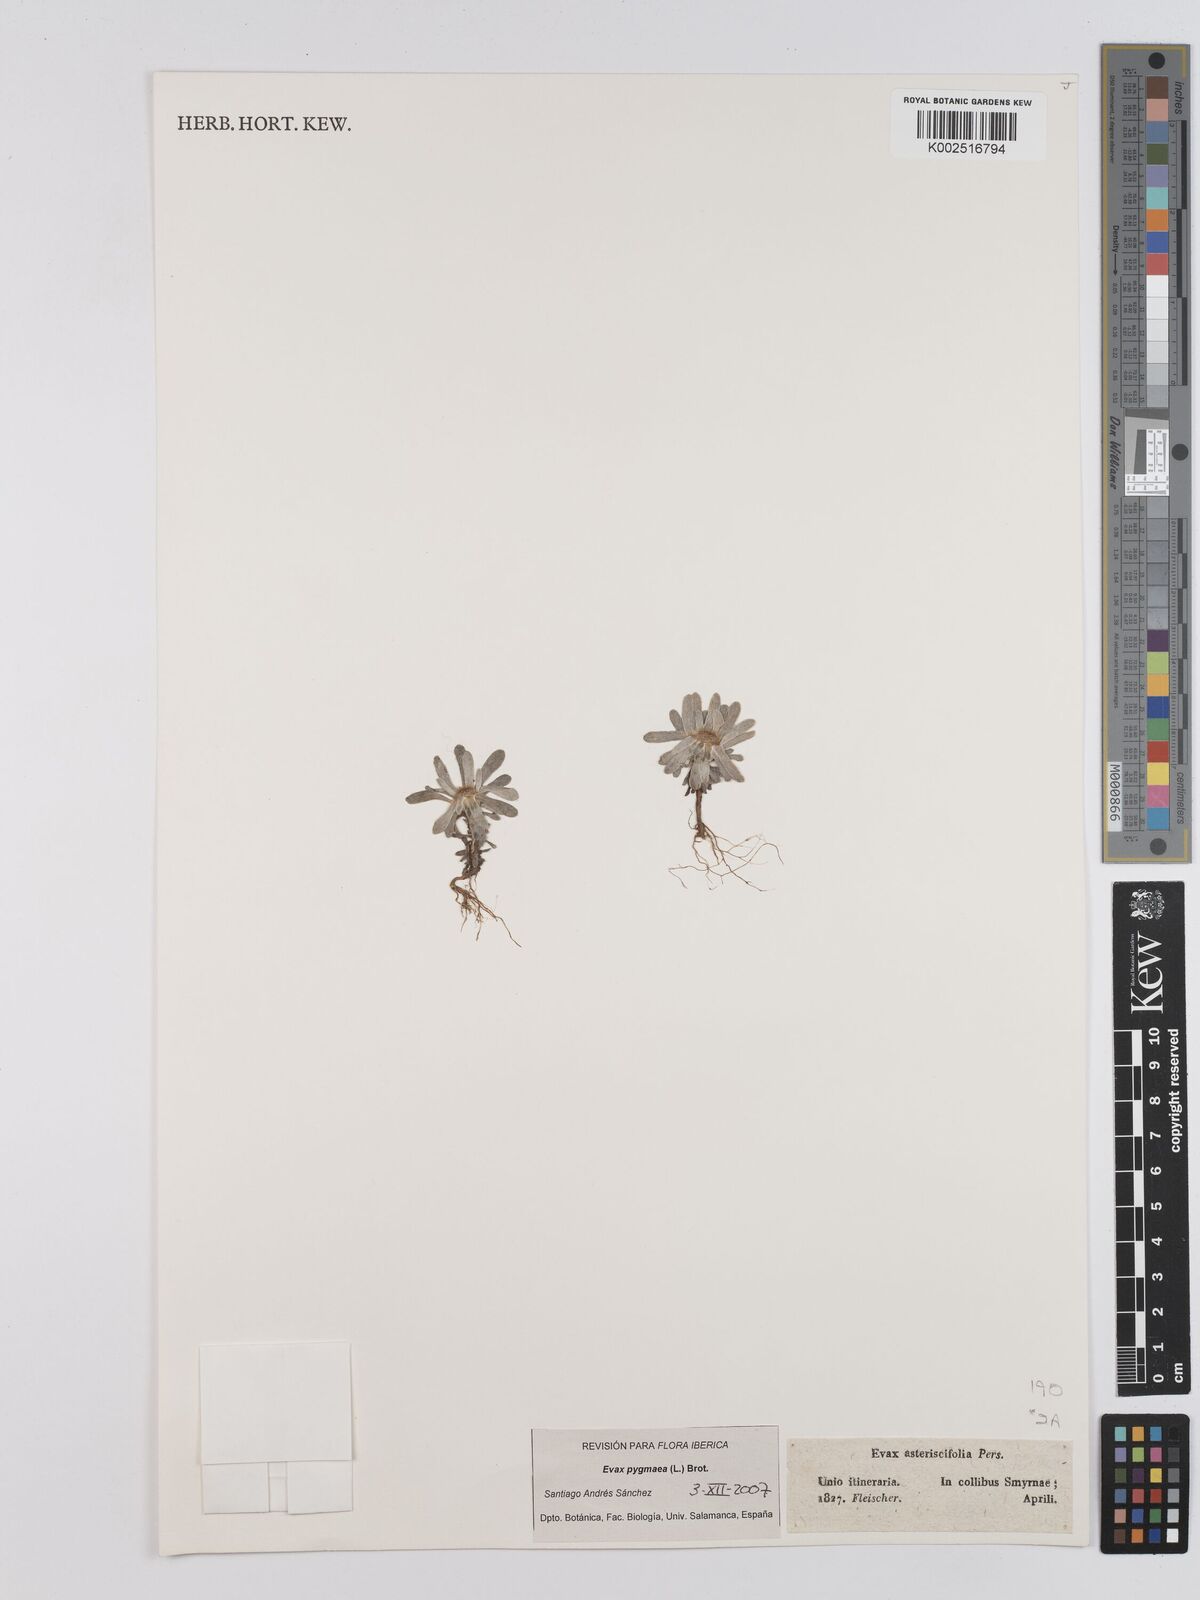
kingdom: Plantae
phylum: Tracheophyta
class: Magnoliopsida
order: Asterales
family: Asteraceae
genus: Filago
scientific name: Filago
